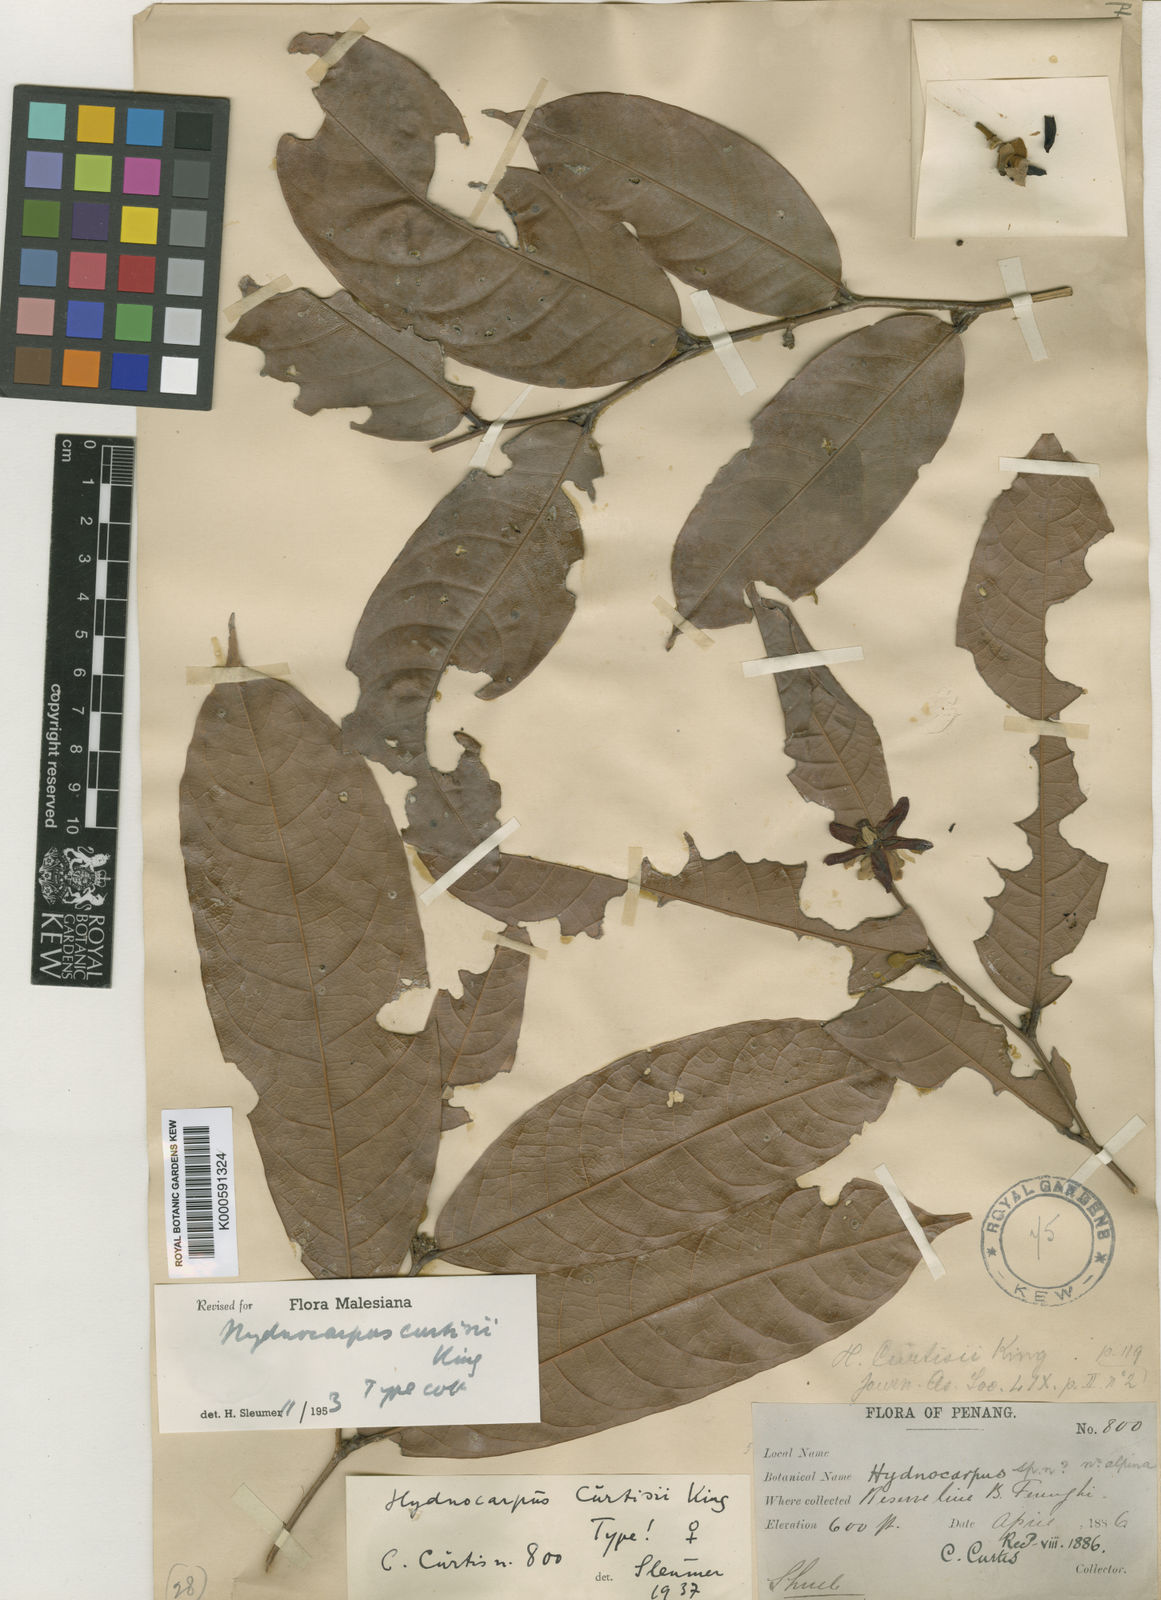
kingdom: Plantae
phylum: Tracheophyta
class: Magnoliopsida
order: Malpighiales
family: Achariaceae
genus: Hydnocarpus
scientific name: Hydnocarpus curtisii
